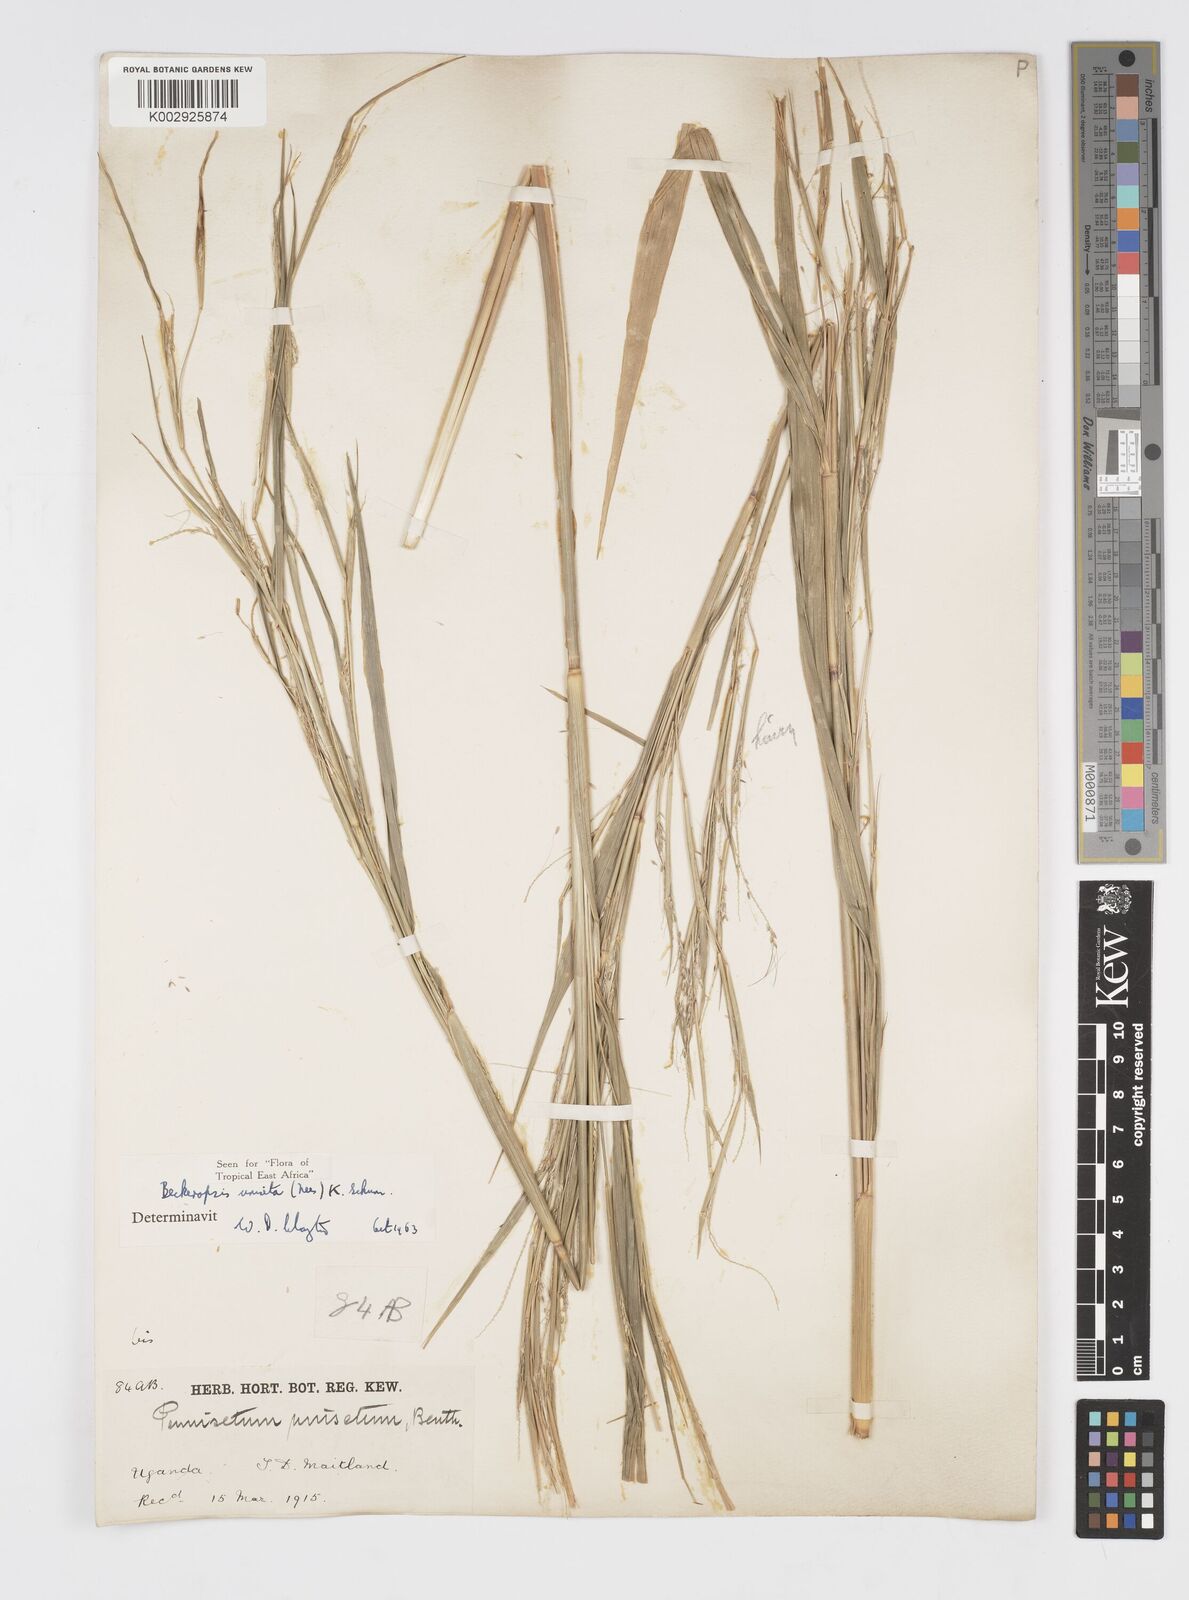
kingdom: Plantae
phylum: Tracheophyta
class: Liliopsida
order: Poales
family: Poaceae
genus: Cenchrus
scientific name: Cenchrus unisetus
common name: Natal grass
